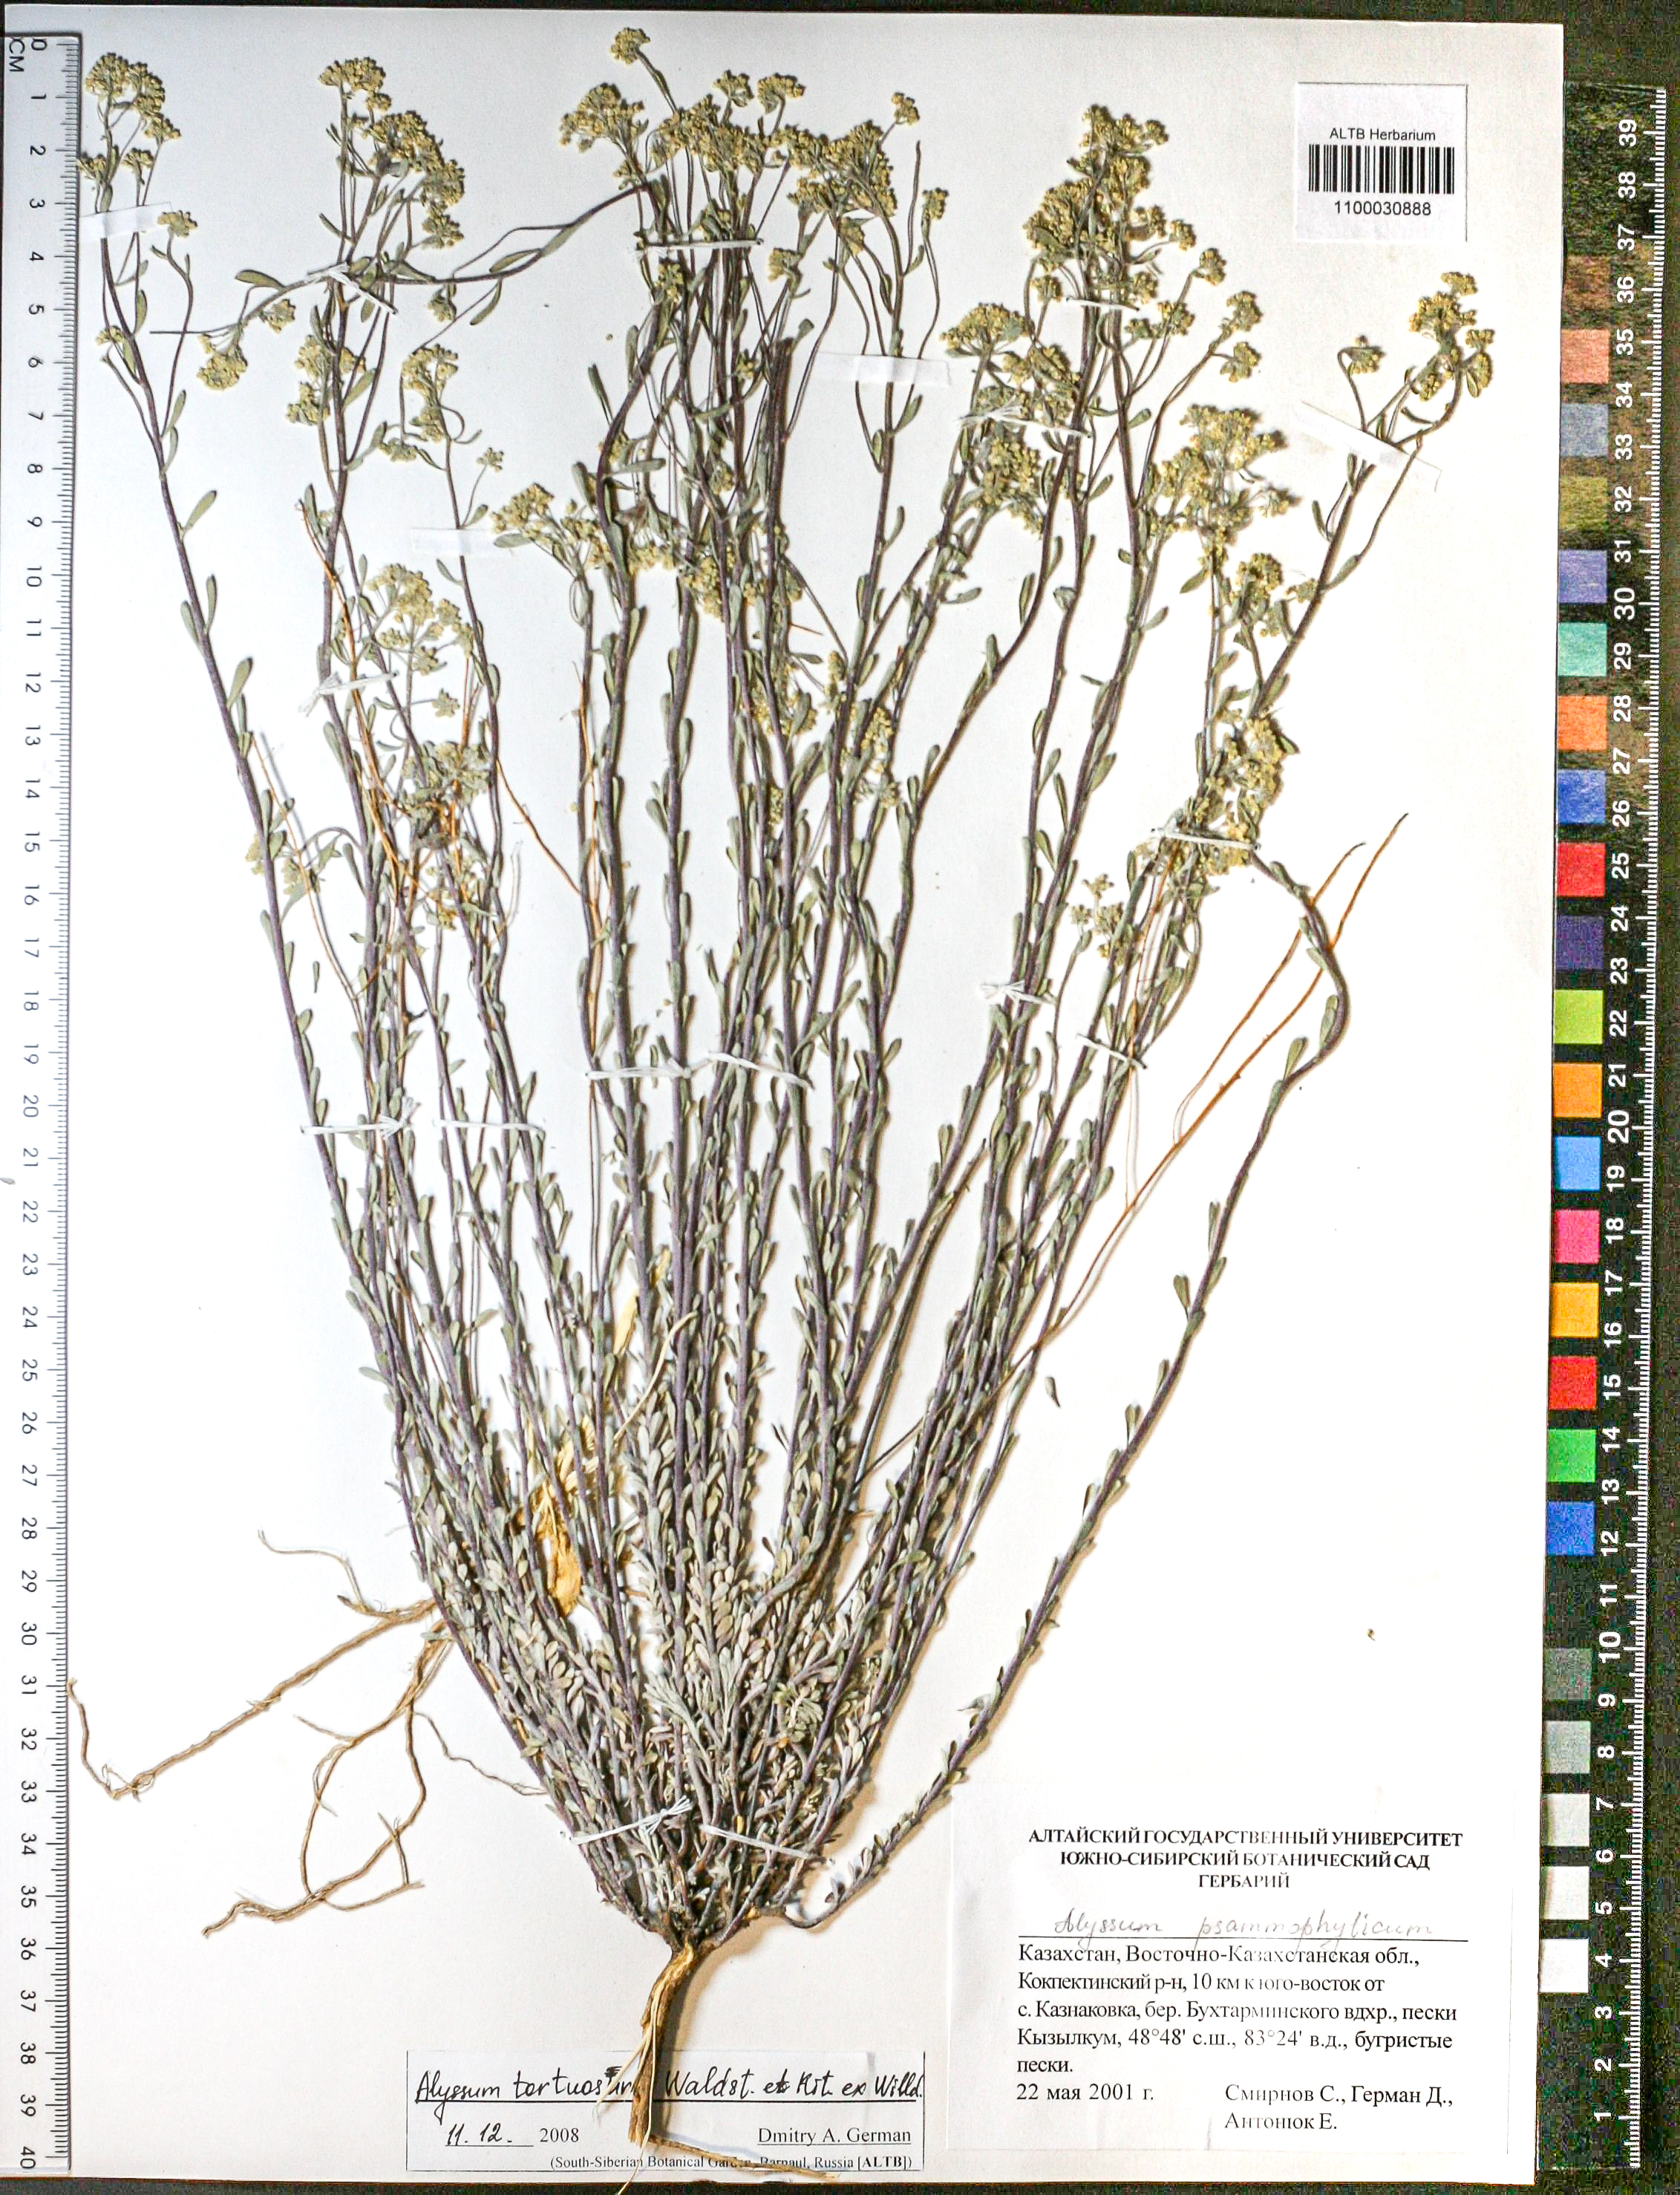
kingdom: Plantae
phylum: Tracheophyta
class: Magnoliopsida
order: Brassicales
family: Brassicaceae
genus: Odontarrhena
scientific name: Odontarrhena alpestris
